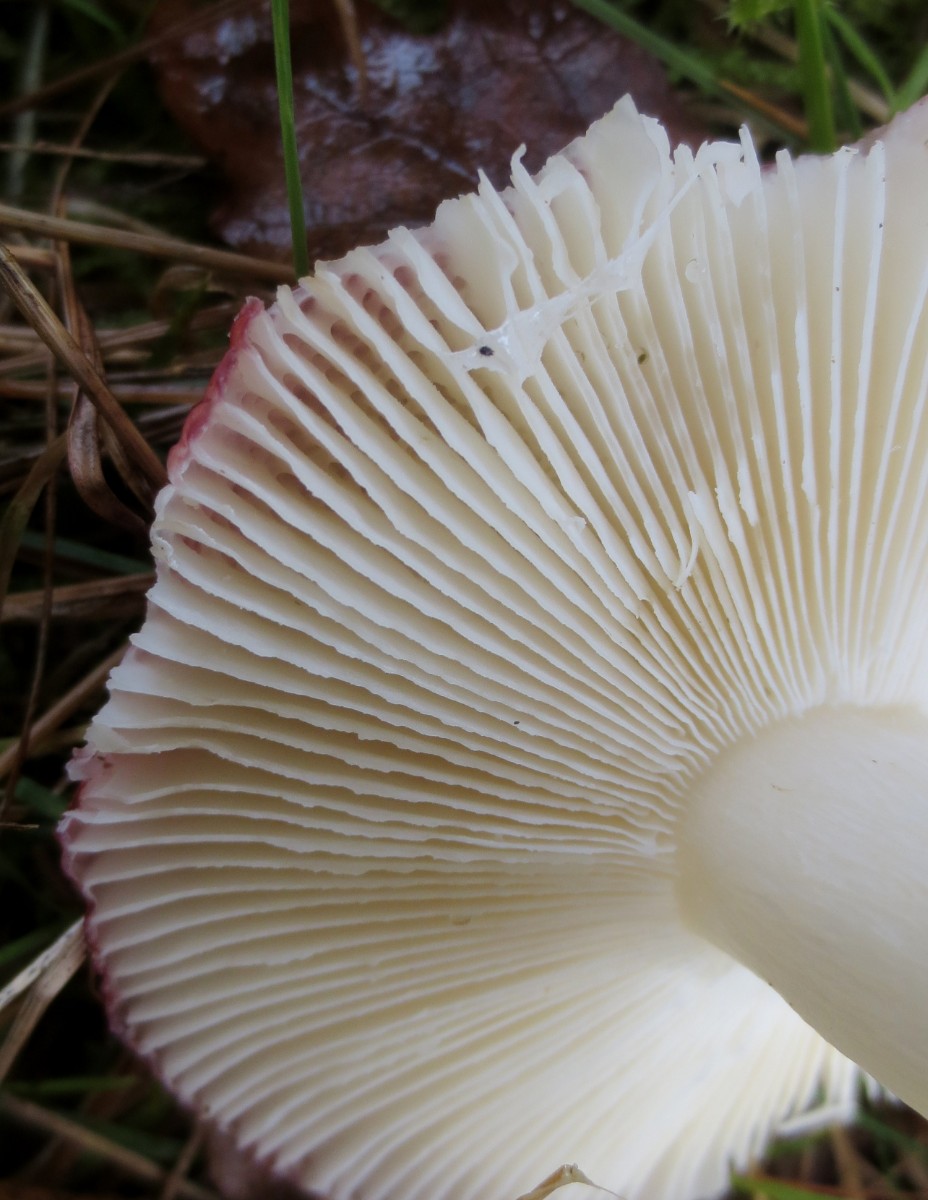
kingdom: Fungi
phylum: Basidiomycota
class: Agaricomycetes
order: Russulales
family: Russulaceae
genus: Russula
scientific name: Russula fragilis
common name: savbladet skørhat
